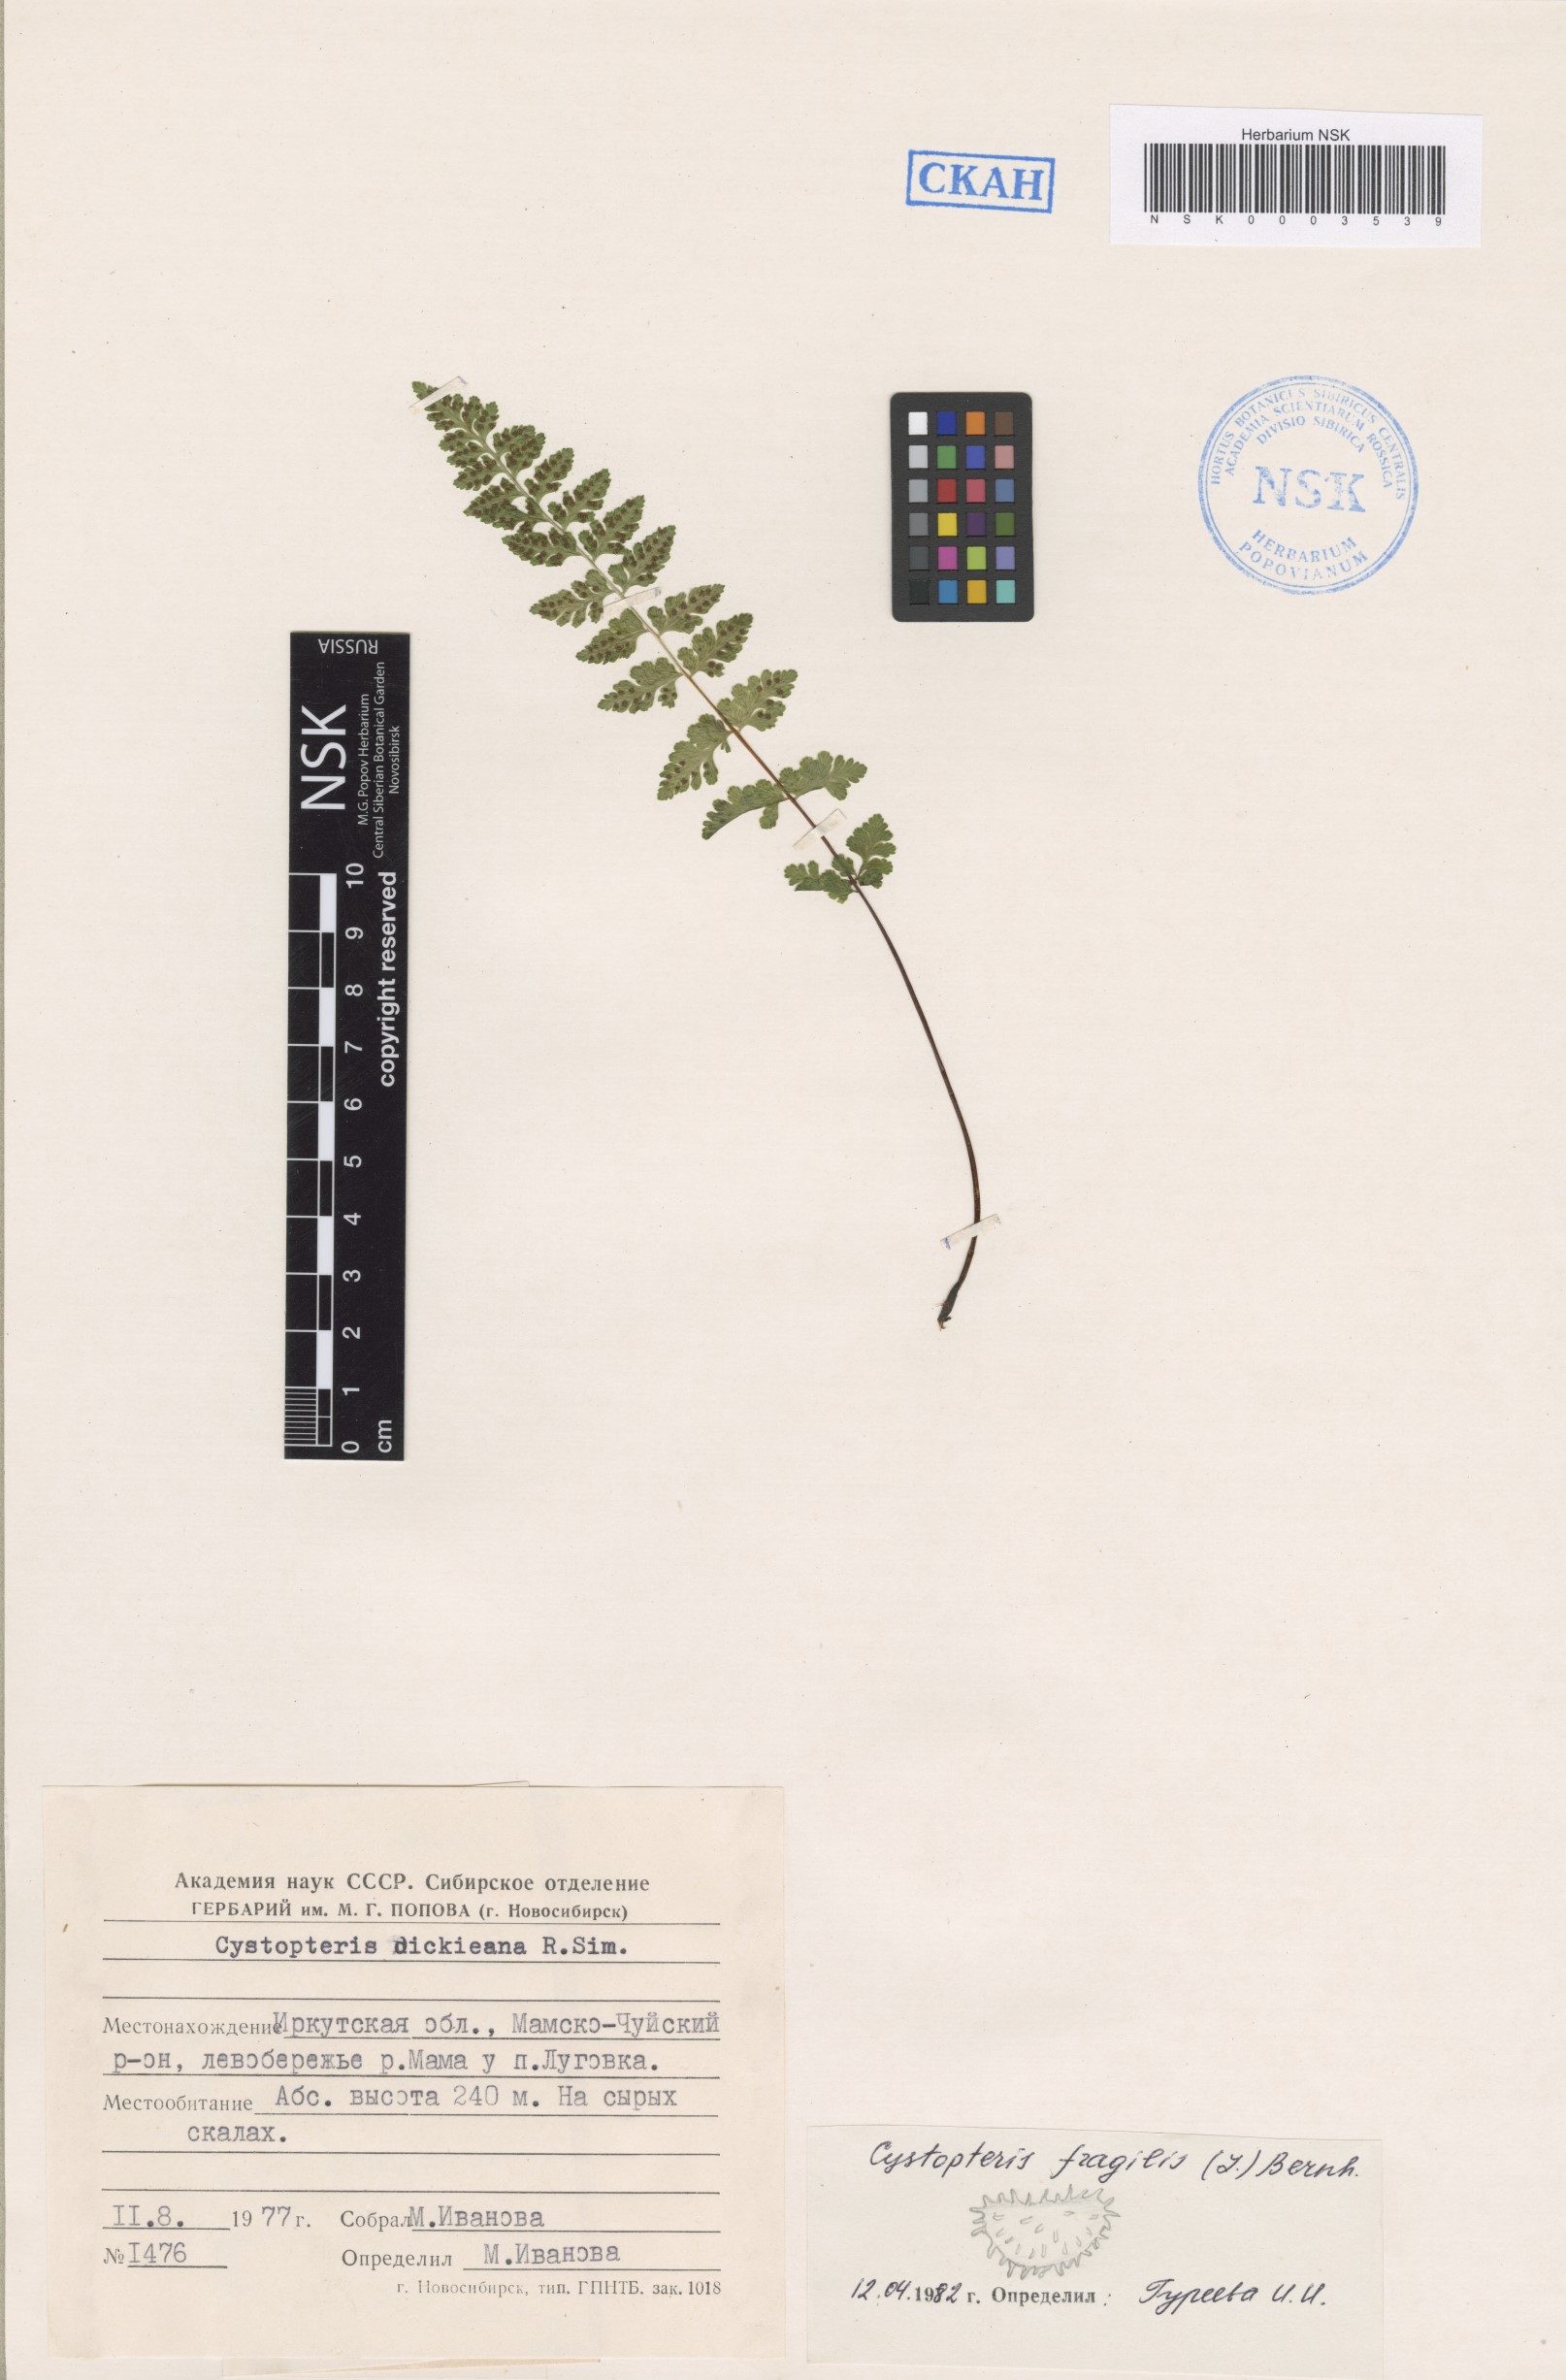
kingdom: Plantae
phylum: Tracheophyta
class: Polypodiopsida
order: Polypodiales
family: Cystopteridaceae
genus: Cystopteris
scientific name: Cystopteris fragilis
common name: Brittle bladder fern
